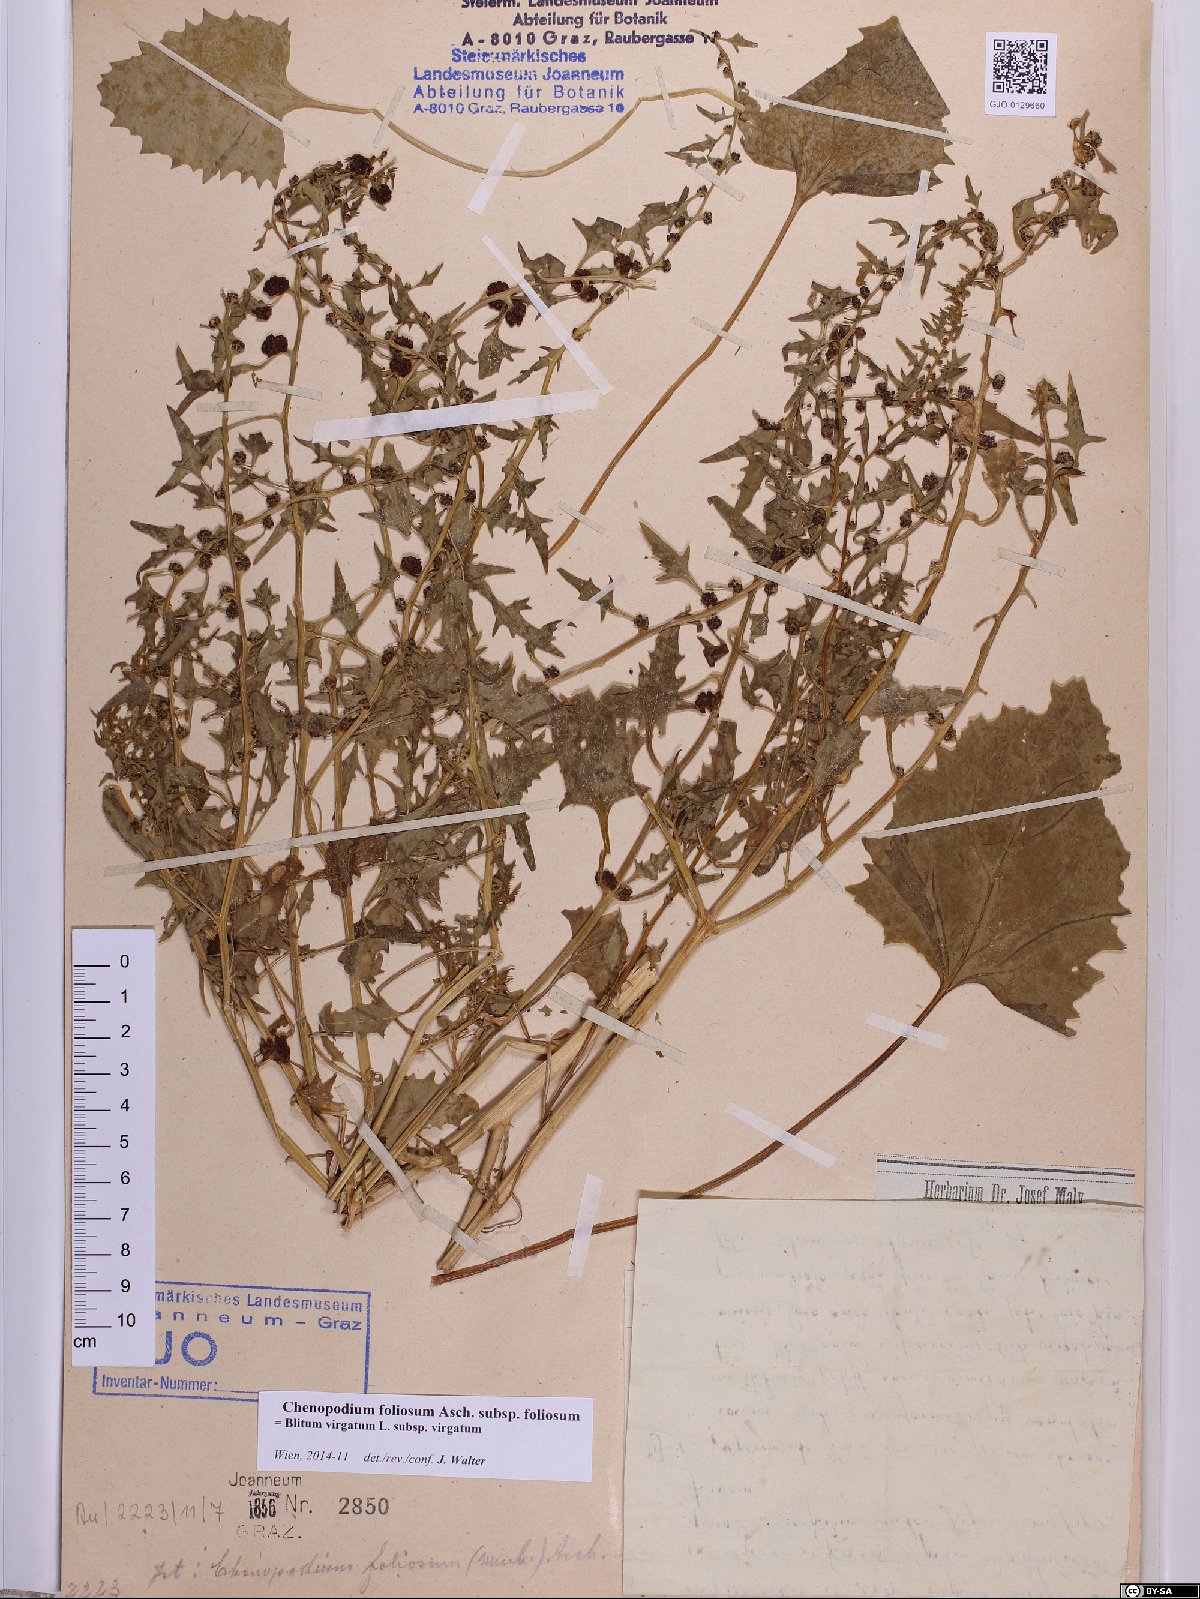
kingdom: Plantae
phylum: Tracheophyta
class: Magnoliopsida
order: Caryophyllales
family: Amaranthaceae
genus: Blitum
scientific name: Blitum virgatum
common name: Strawberry goosefoot
